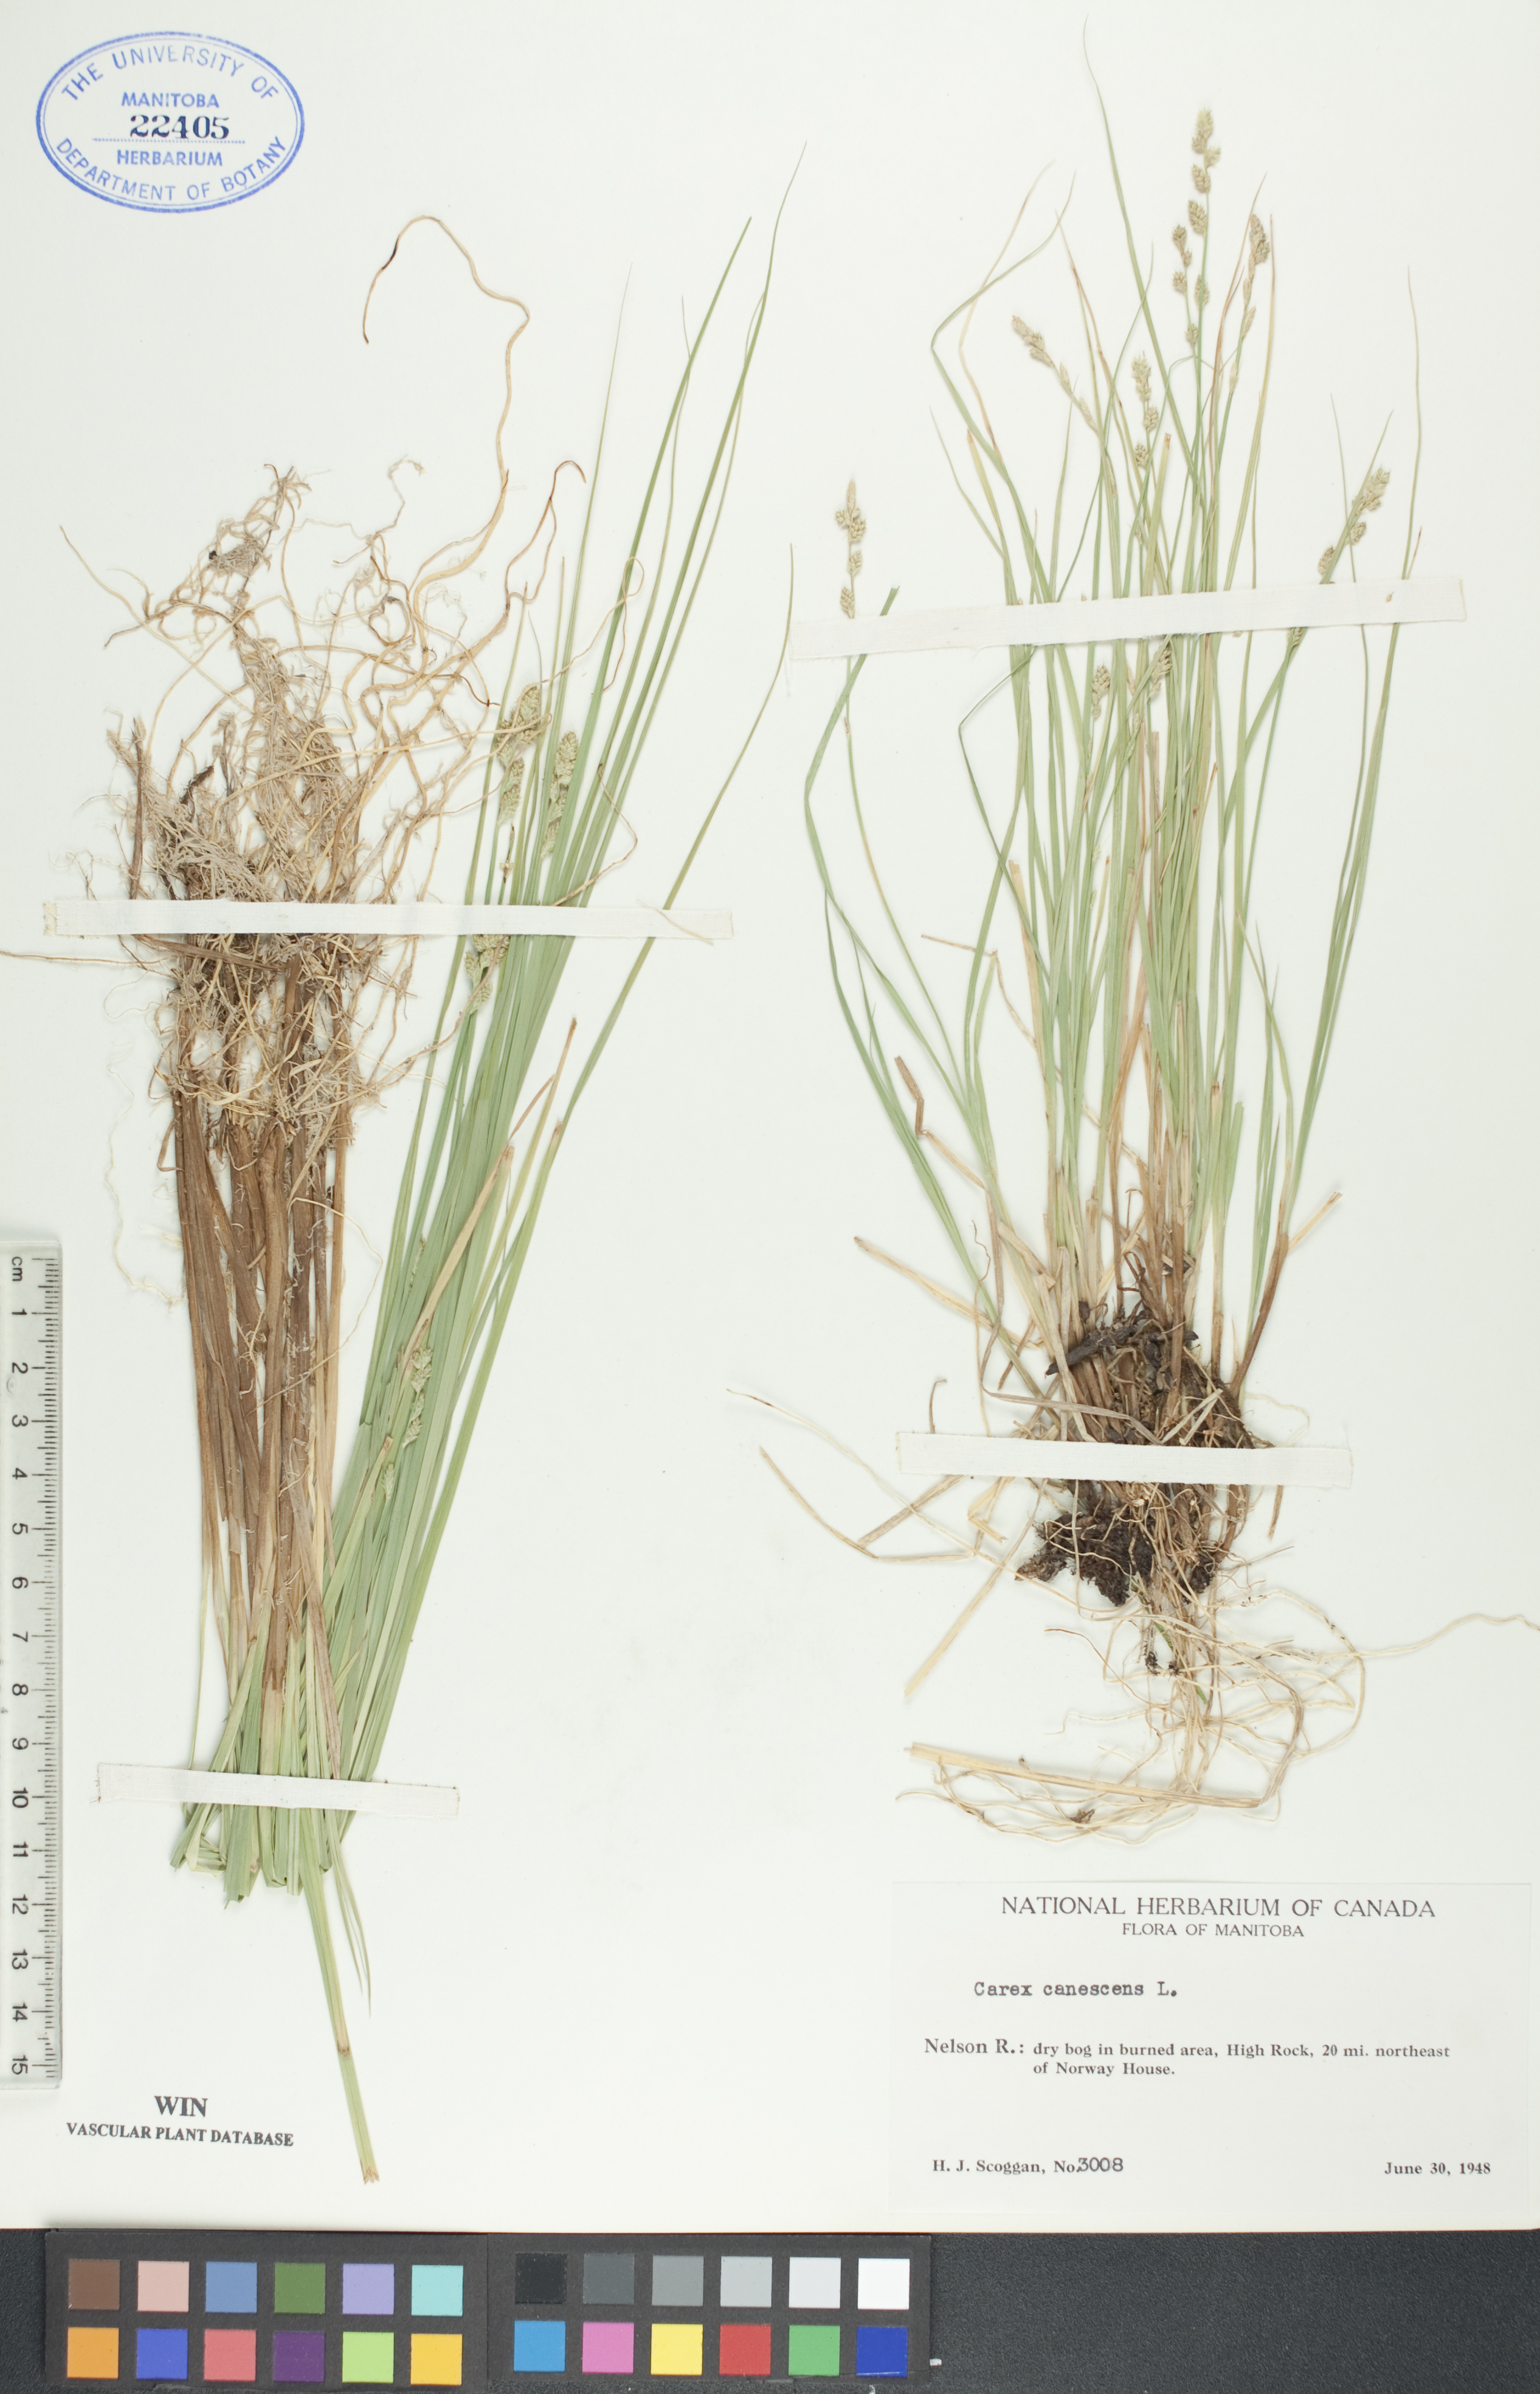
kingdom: Plantae
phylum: Tracheophyta
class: Liliopsida
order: Poales
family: Cyperaceae
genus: Carex
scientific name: Carex canescens
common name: White sedge
